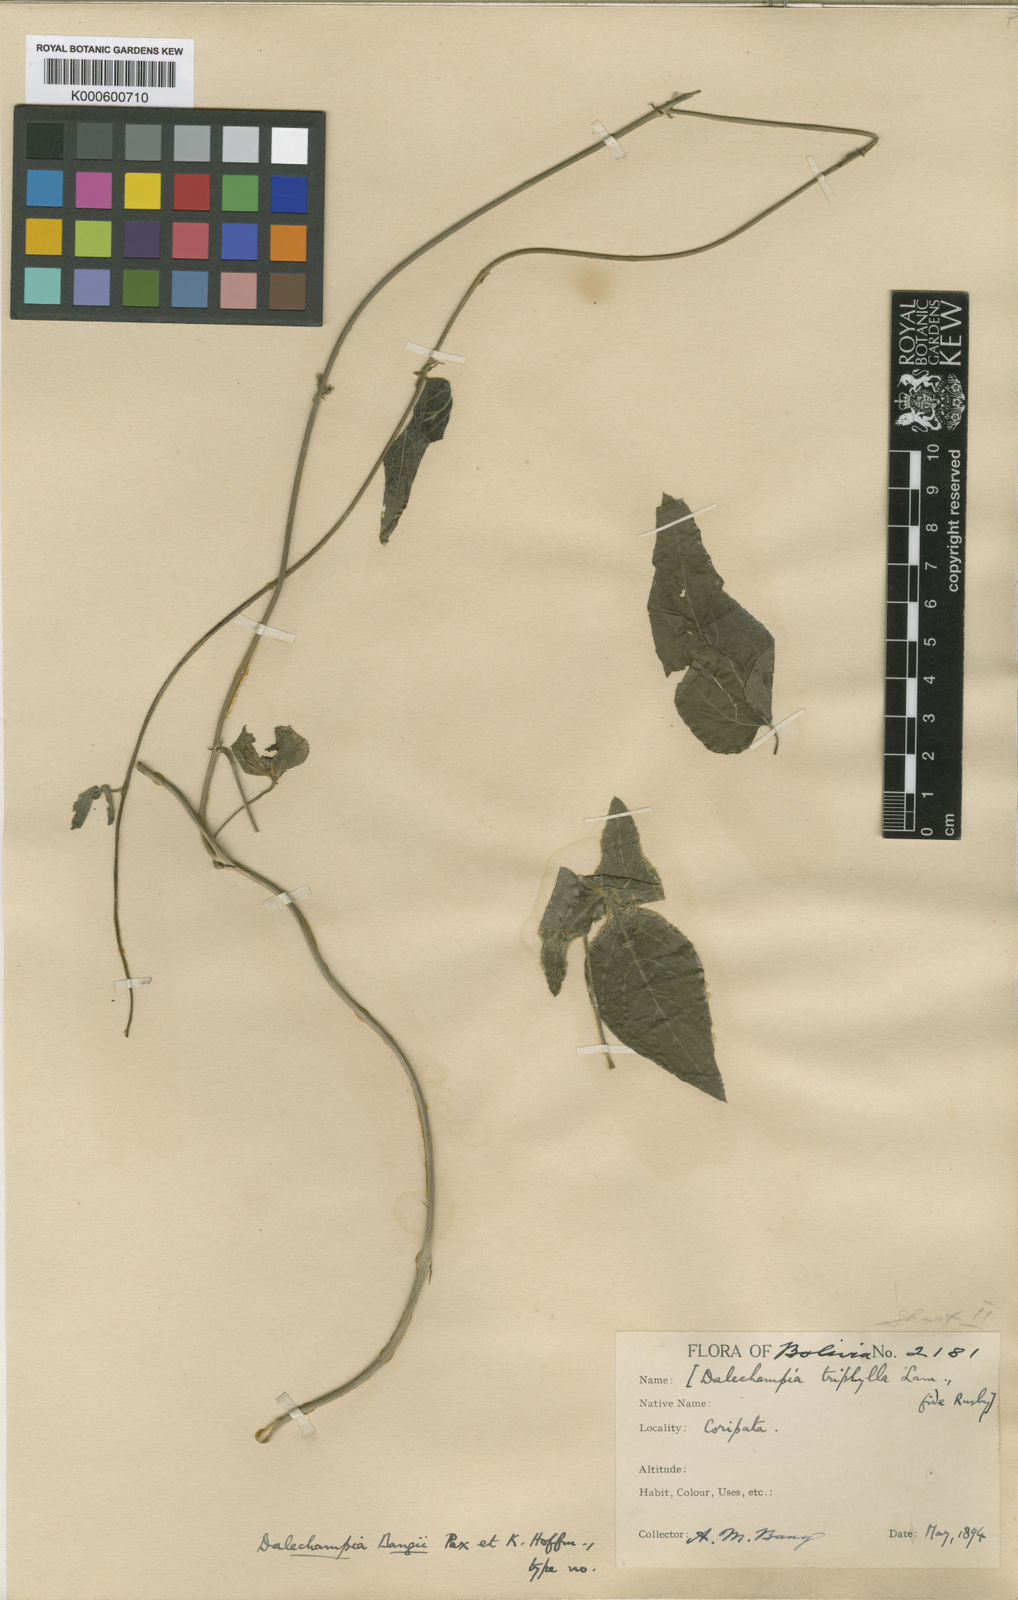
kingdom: Plantae
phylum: Tracheophyta
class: Magnoliopsida
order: Malpighiales
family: Euphorbiaceae
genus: Dalechampia
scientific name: Dalechampia bangii
